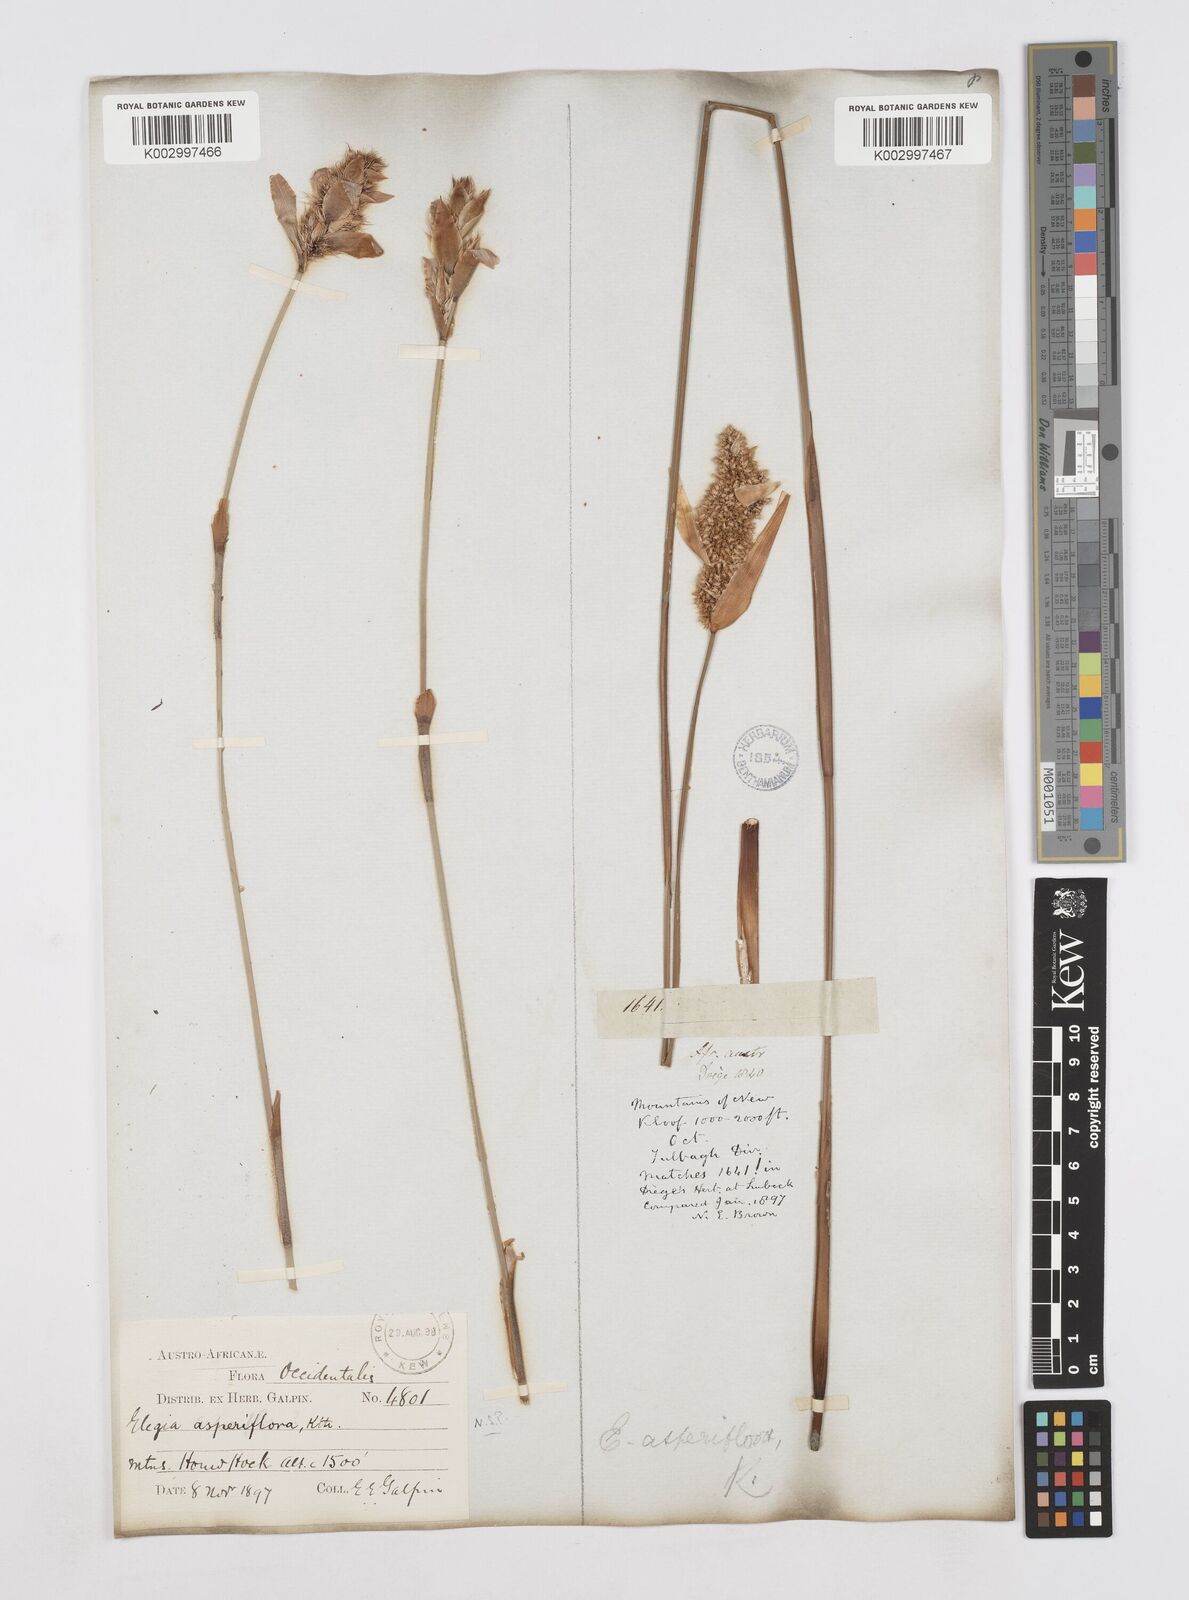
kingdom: Plantae
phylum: Tracheophyta
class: Liliopsida
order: Poales
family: Restionaceae
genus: Elegia
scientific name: Elegia asperiflora
